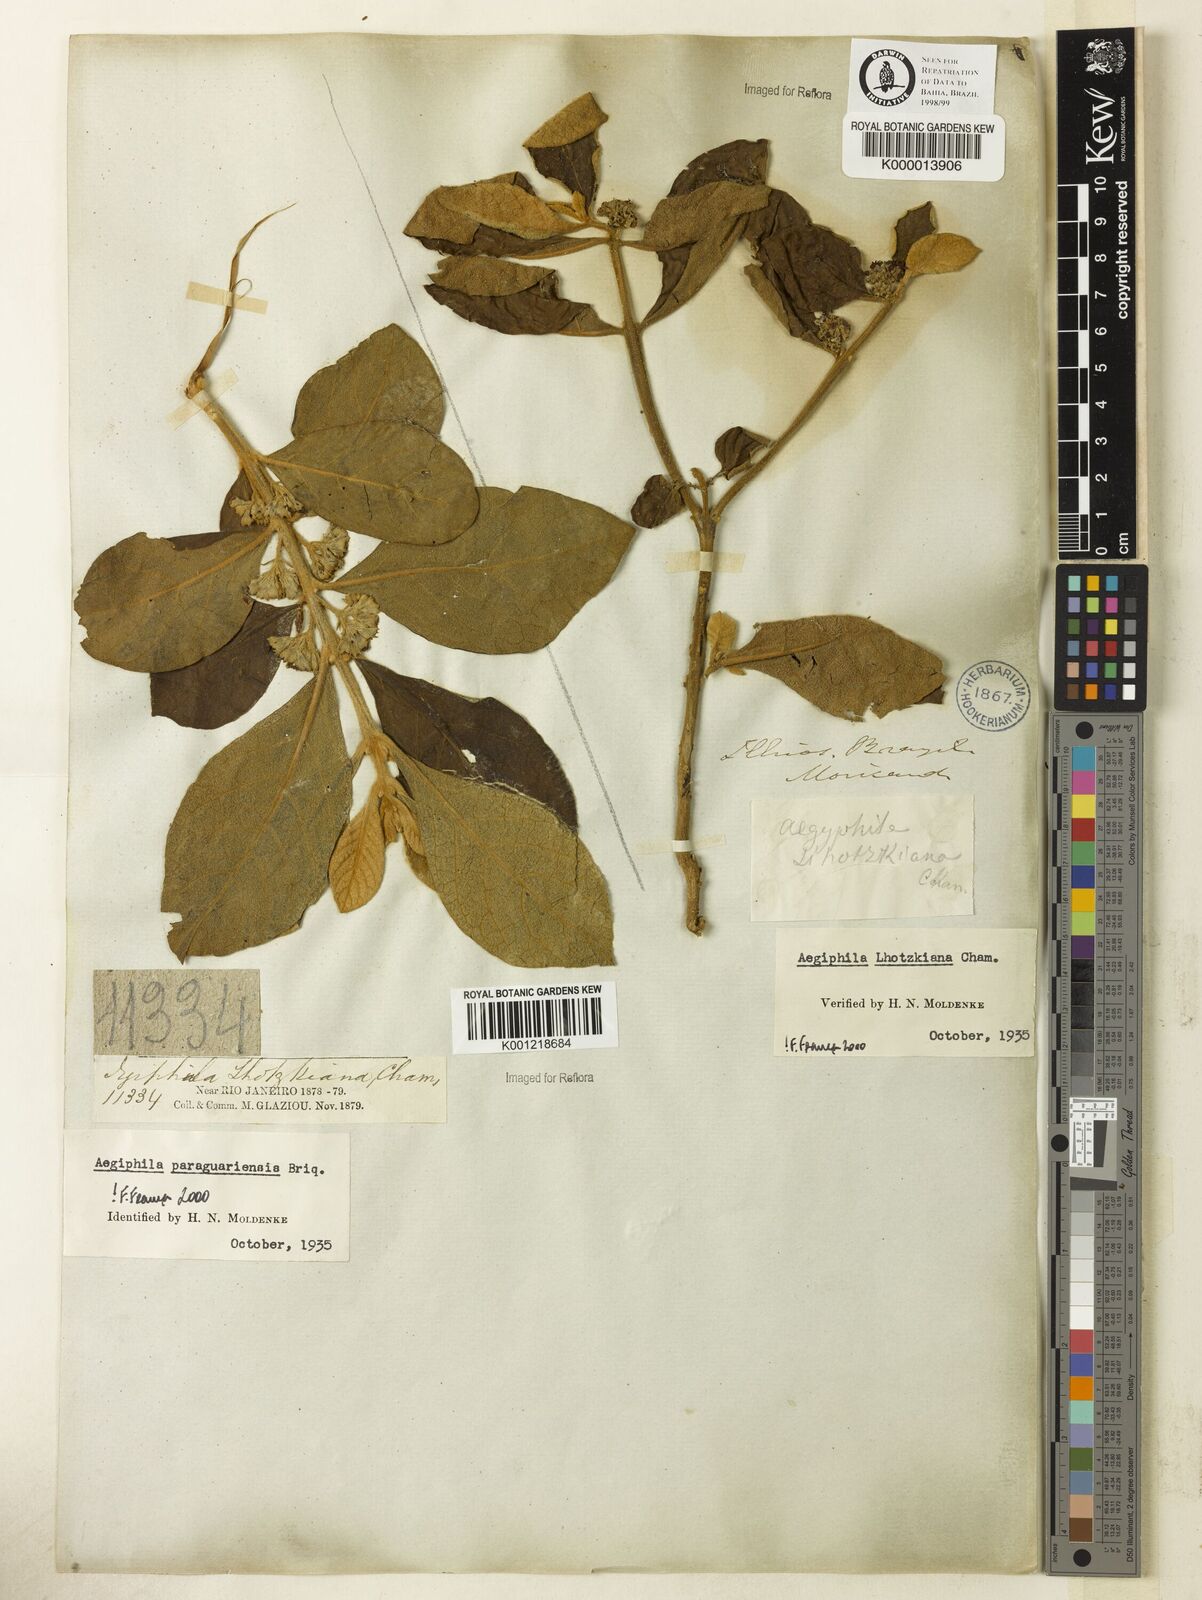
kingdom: Plantae
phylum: Tracheophyta
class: Magnoliopsida
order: Lamiales
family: Lamiaceae
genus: Aegiphila
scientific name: Aegiphila verticillata
